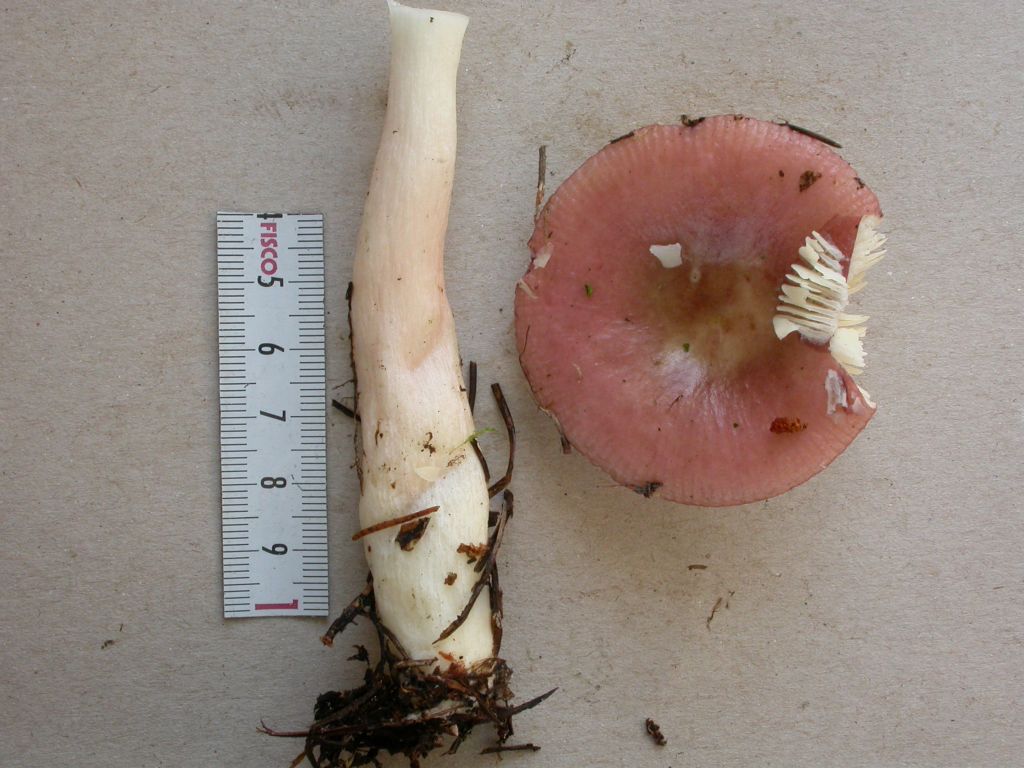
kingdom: Fungi
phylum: Basidiomycota
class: Agaricomycetes
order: Russulales
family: Russulaceae
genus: Russula
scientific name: Russula nitida
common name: året skørhat
